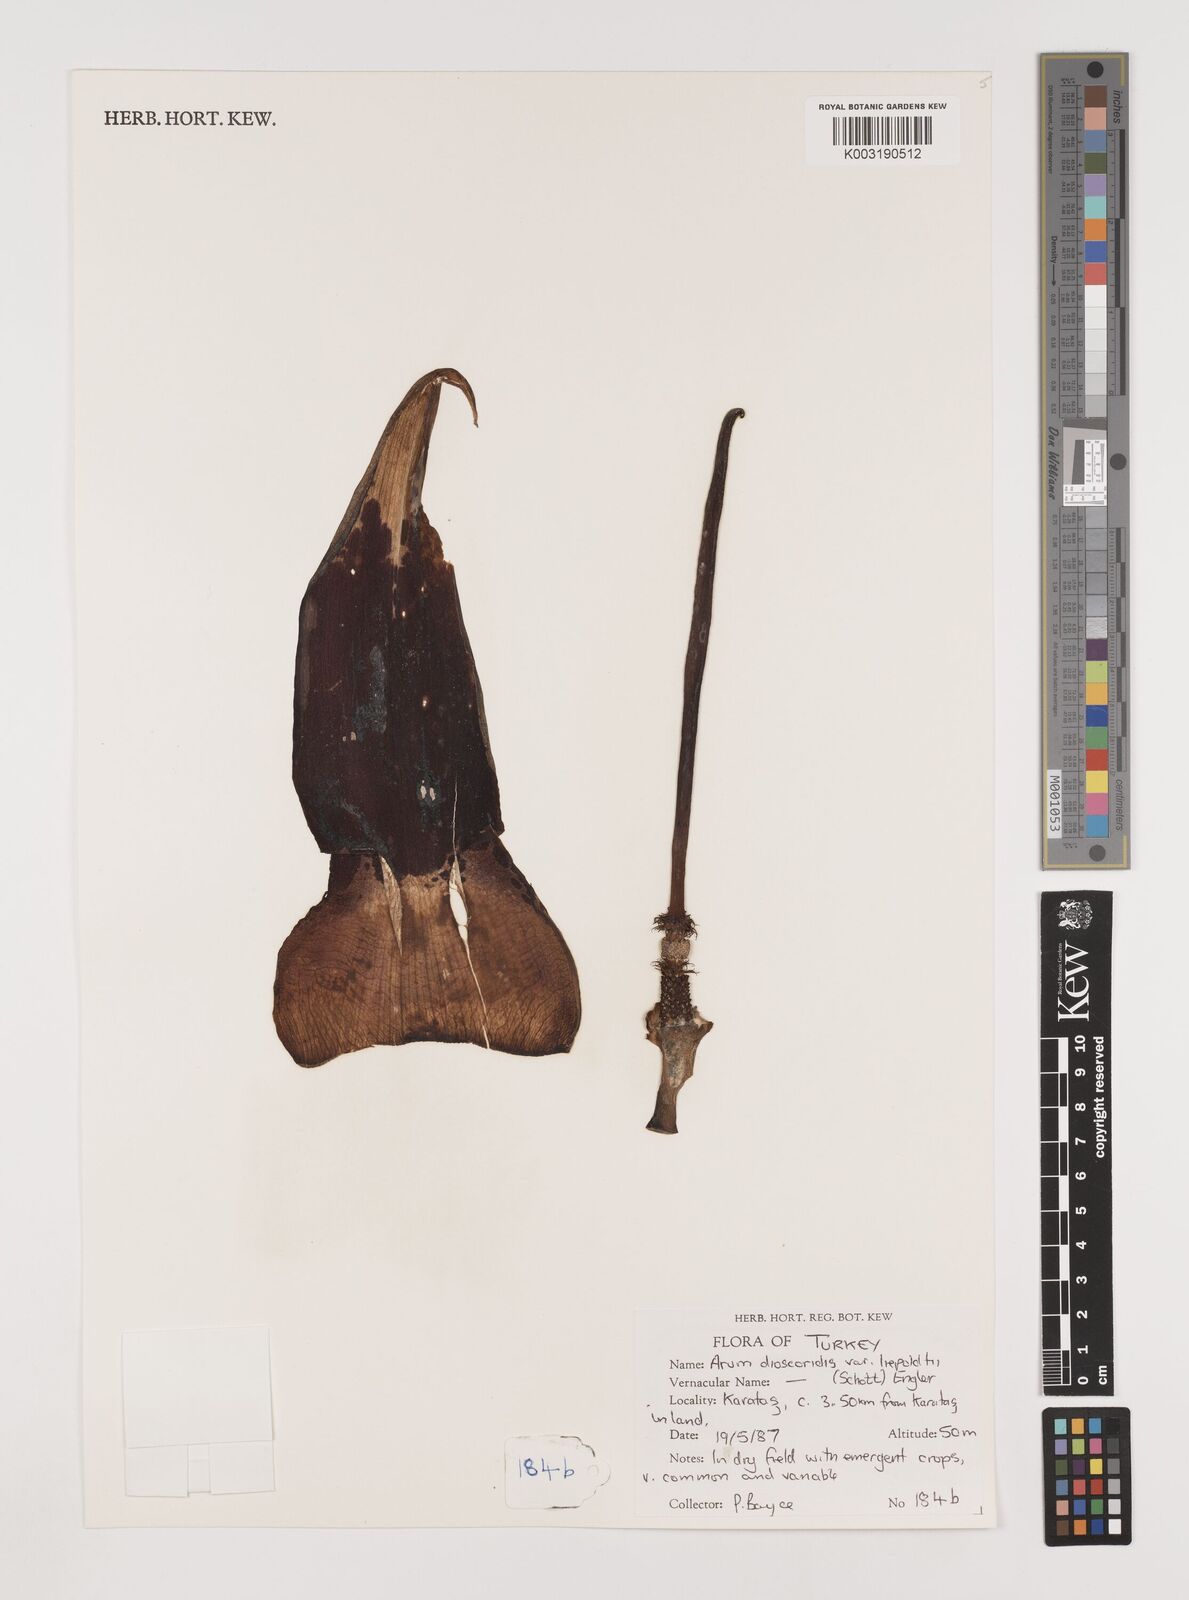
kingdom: Plantae
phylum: Tracheophyta
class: Liliopsida
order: Alismatales
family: Araceae
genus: Arum
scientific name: Arum dioscoridis
